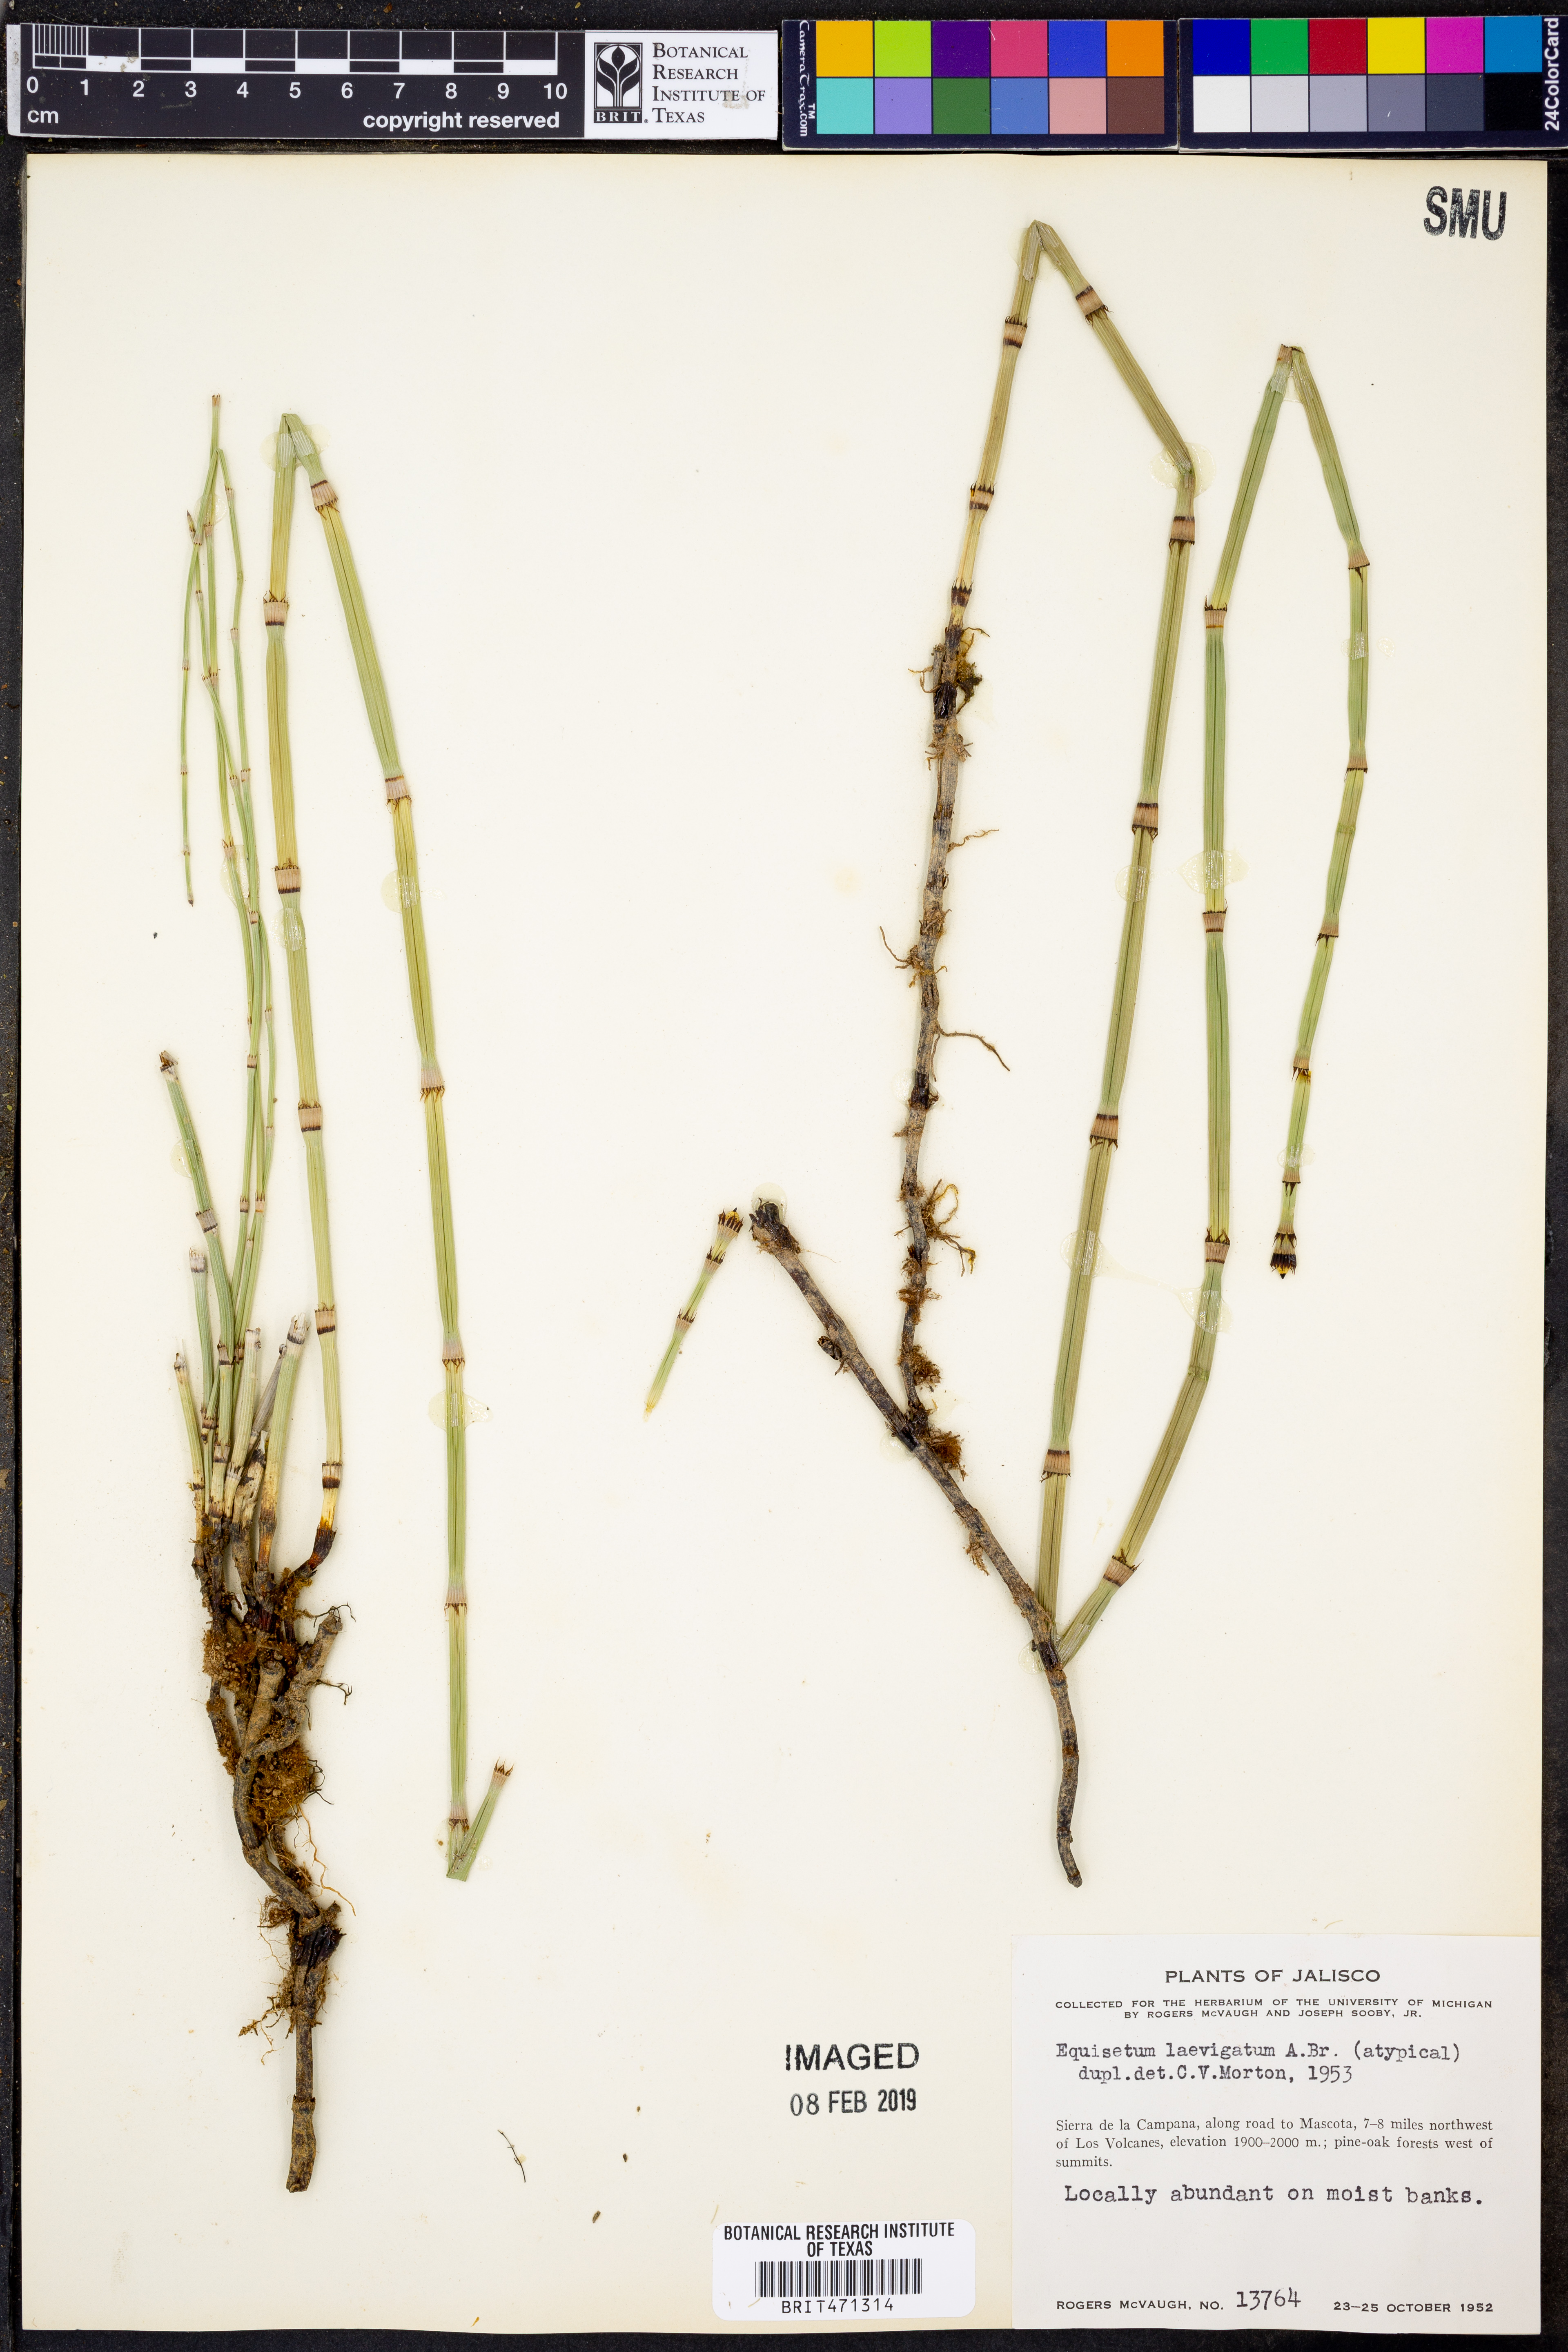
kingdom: Plantae
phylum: Tracheophyta
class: Polypodiopsida
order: Equisetales
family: Equisetaceae
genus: Equisetum
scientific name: Equisetum laevigatum
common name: Smooth scouring-rush
